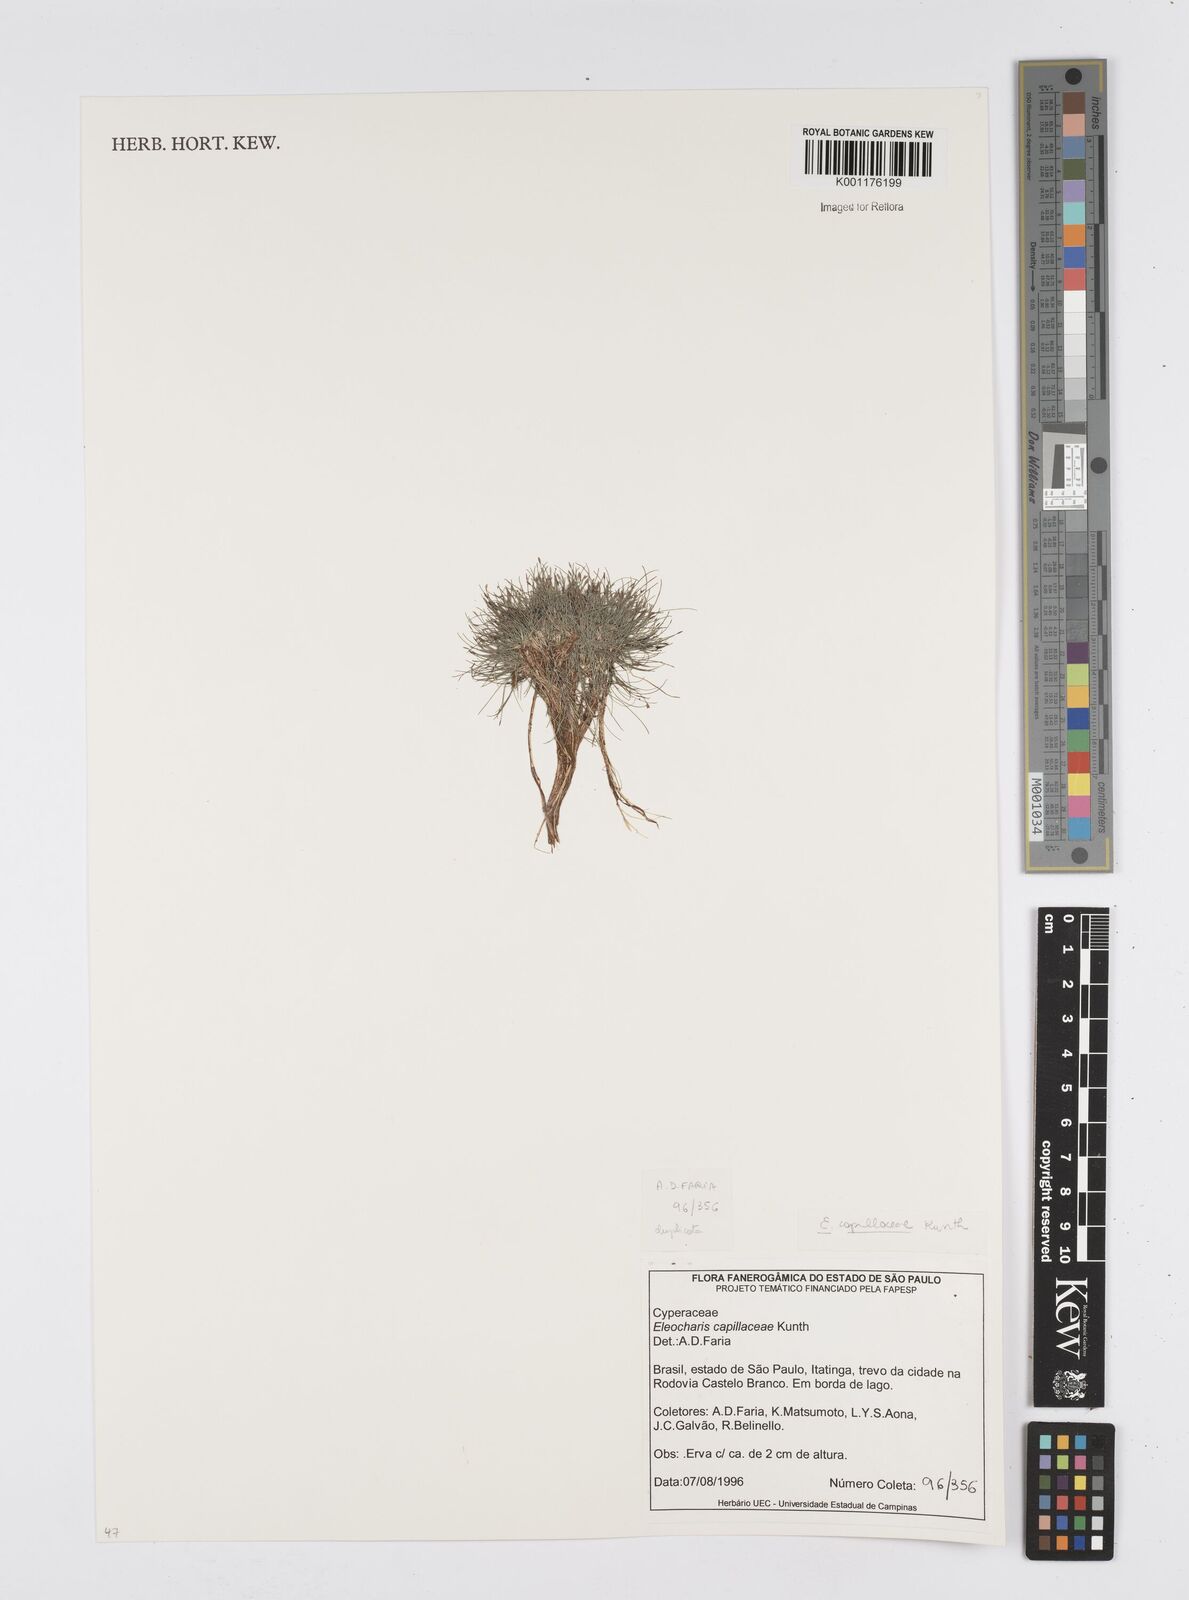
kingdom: Plantae
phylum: Tracheophyta
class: Liliopsida
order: Poales
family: Cyperaceae
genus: Eleocharis
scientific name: Eleocharis capillacea
